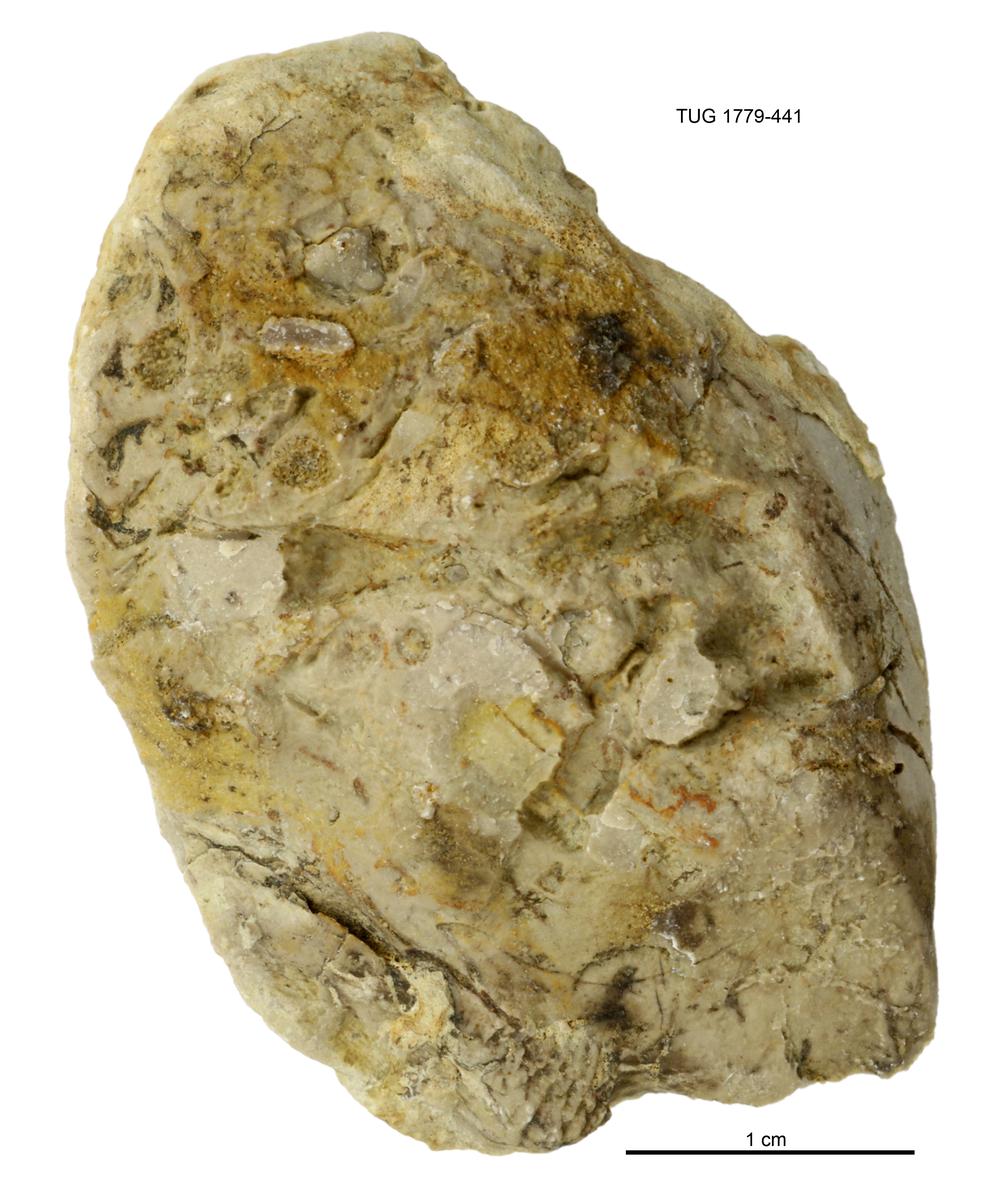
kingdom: Animalia
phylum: Mollusca
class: Bivalvia
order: Modiomorphida
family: Modiomorphidae
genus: Modiolopsis
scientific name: Modiolopsis
